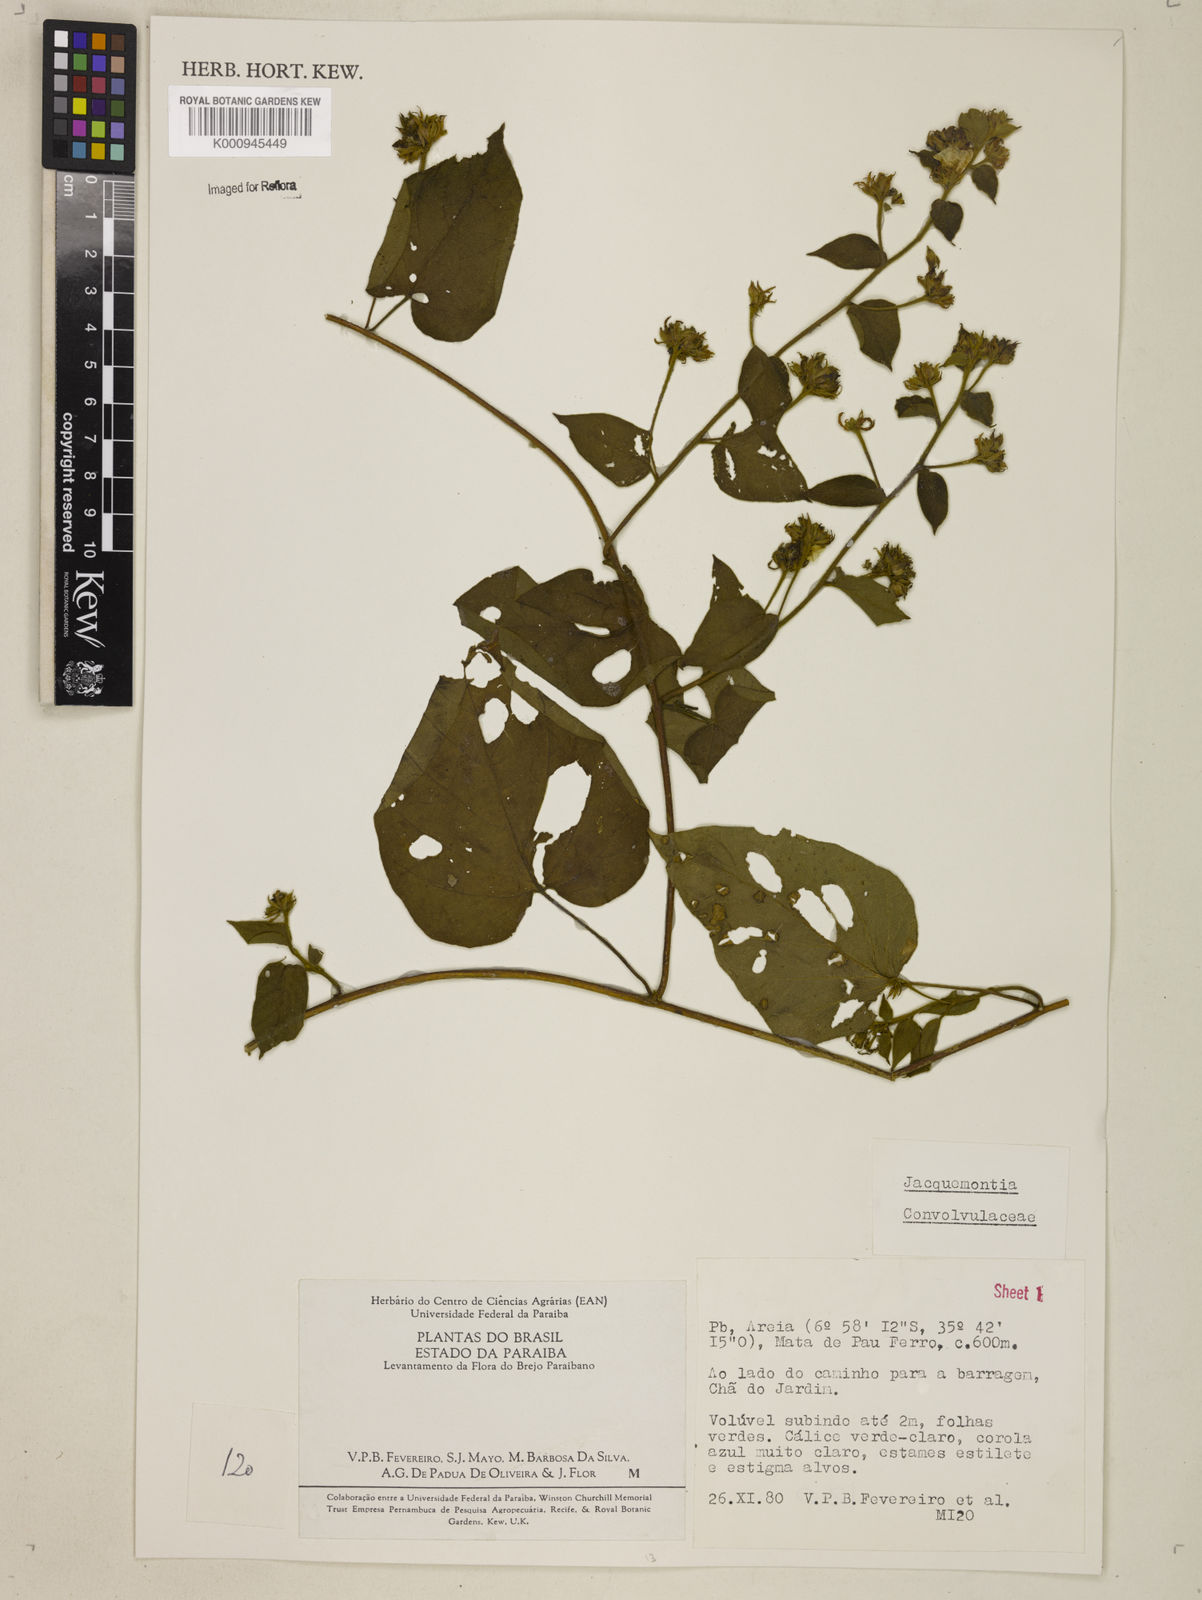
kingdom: Plantae
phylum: Tracheophyta
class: Magnoliopsida
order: Solanales
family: Convolvulaceae
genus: Jacquemontia
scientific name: Jacquemontia
